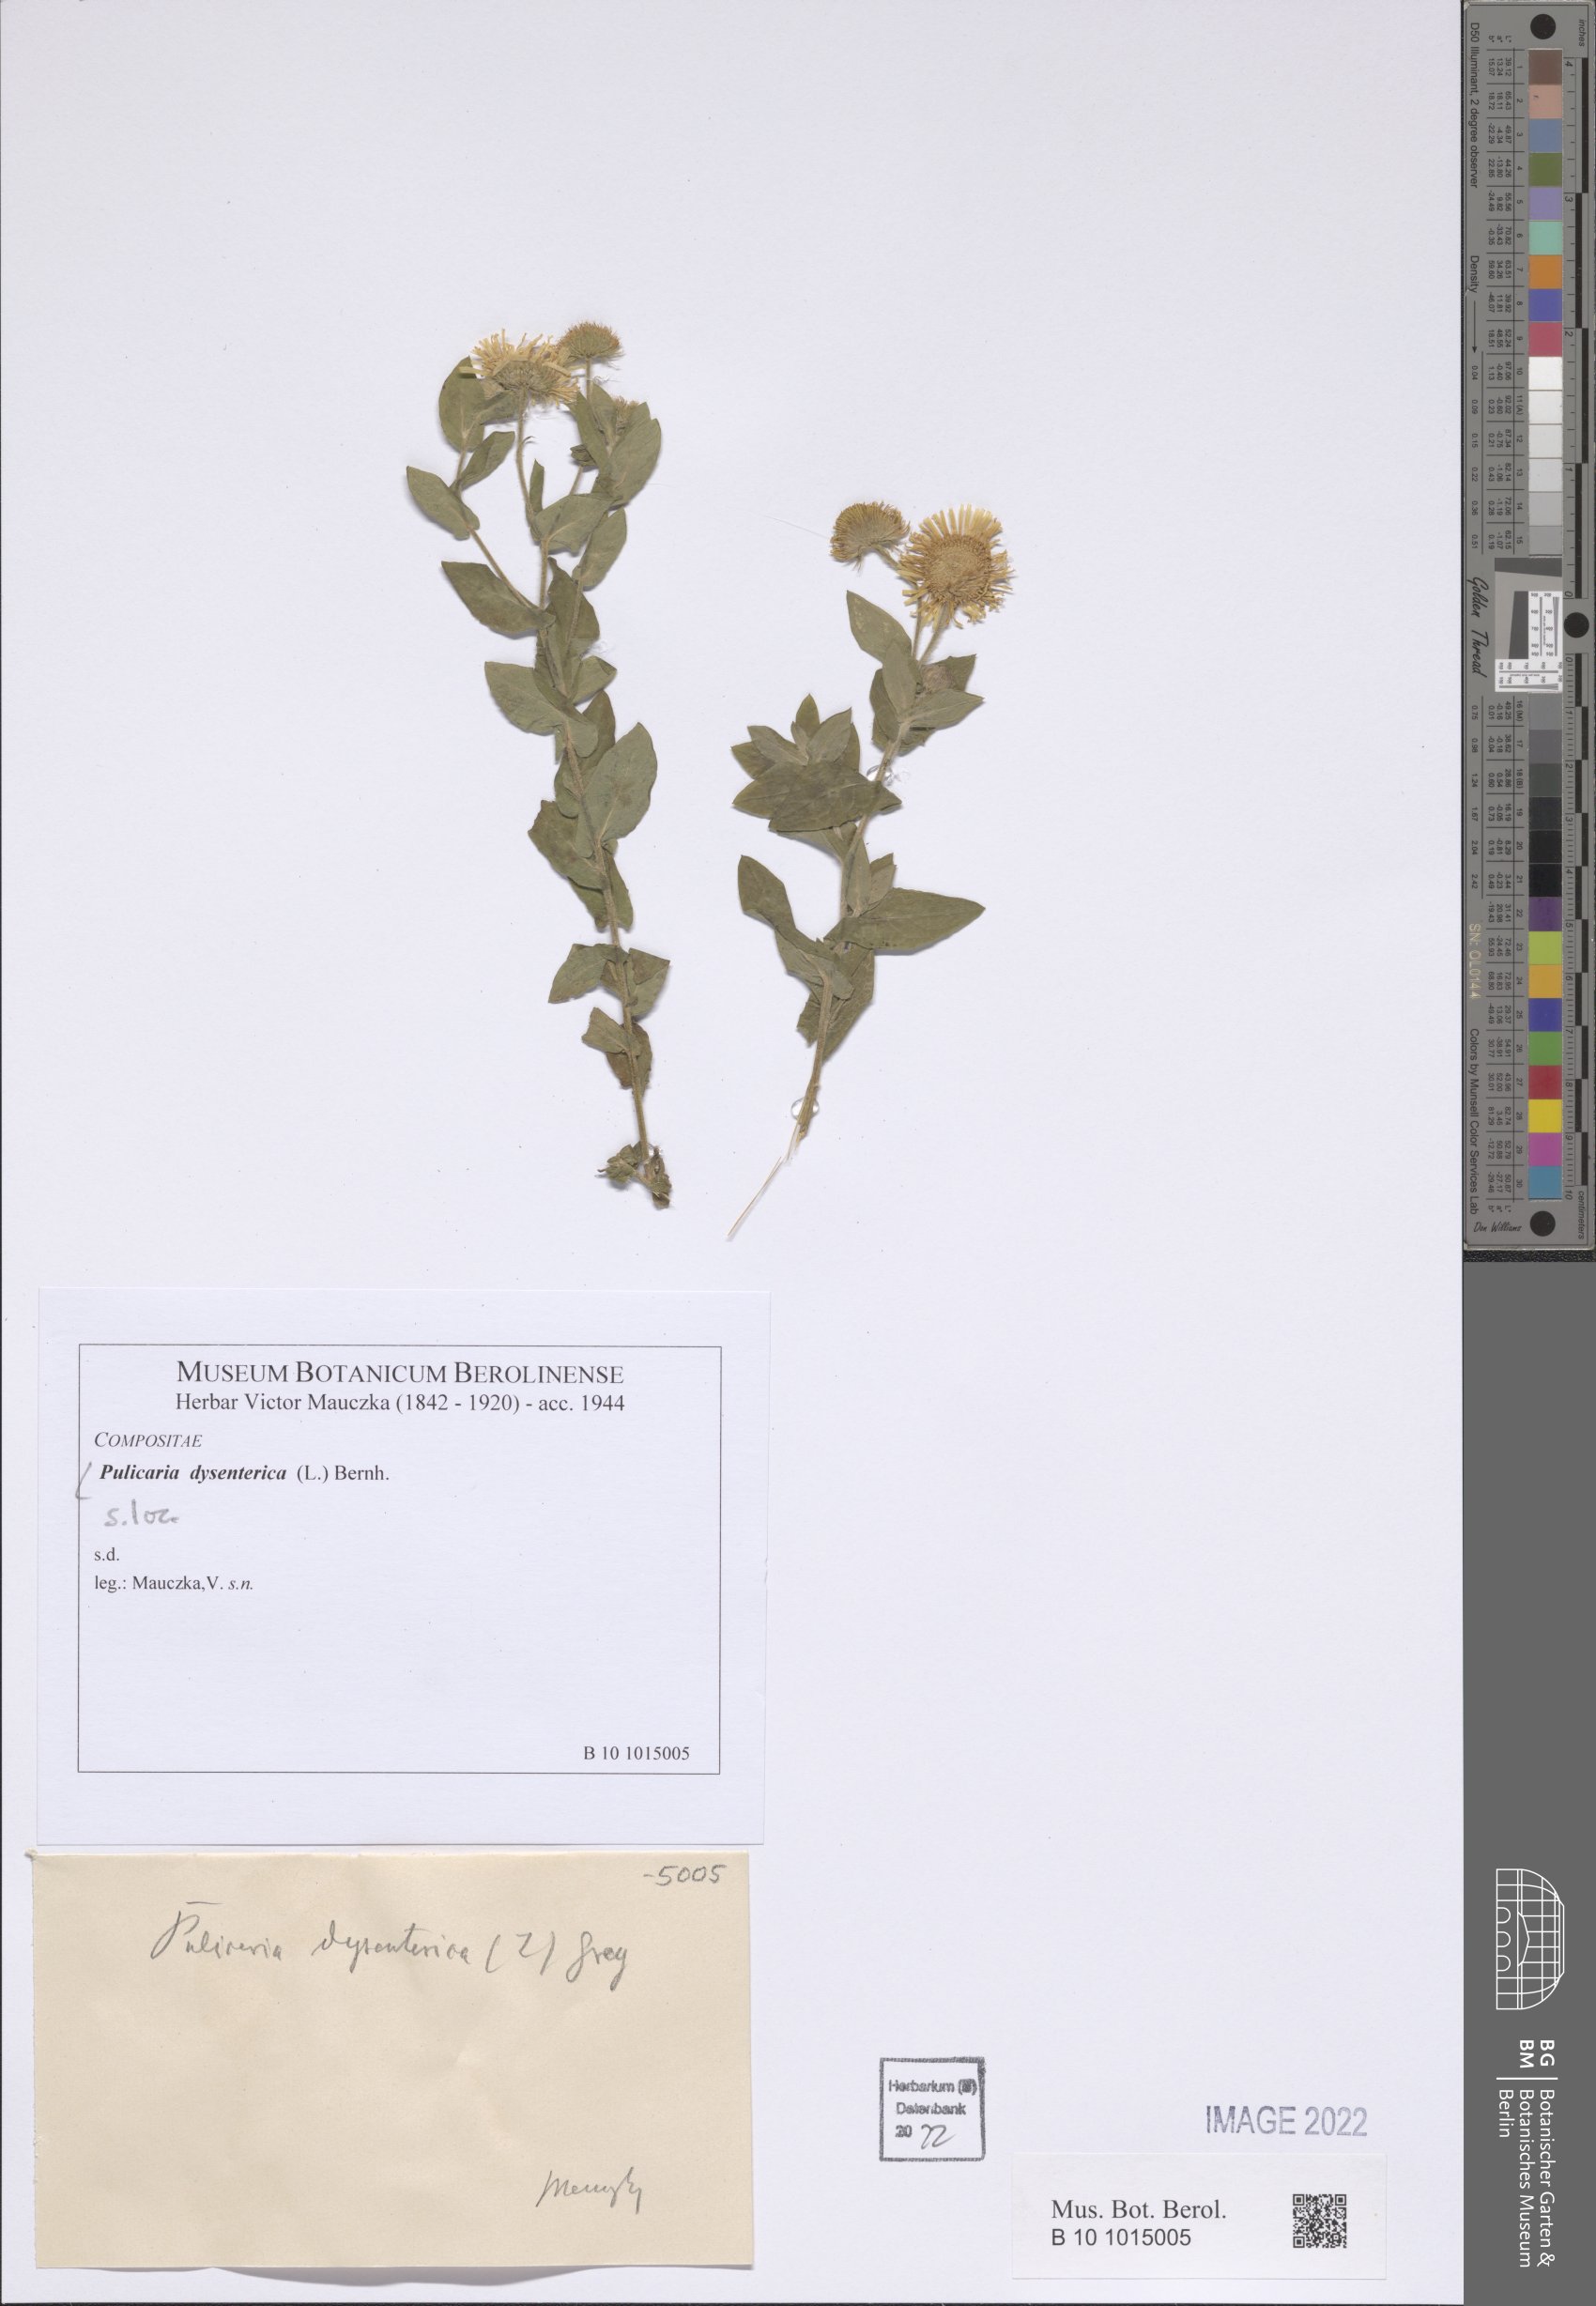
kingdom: Plantae
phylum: Tracheophyta
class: Magnoliopsida
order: Asterales
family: Asteraceae
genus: Pulicaria
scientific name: Pulicaria dysenterica
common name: Common fleabane
